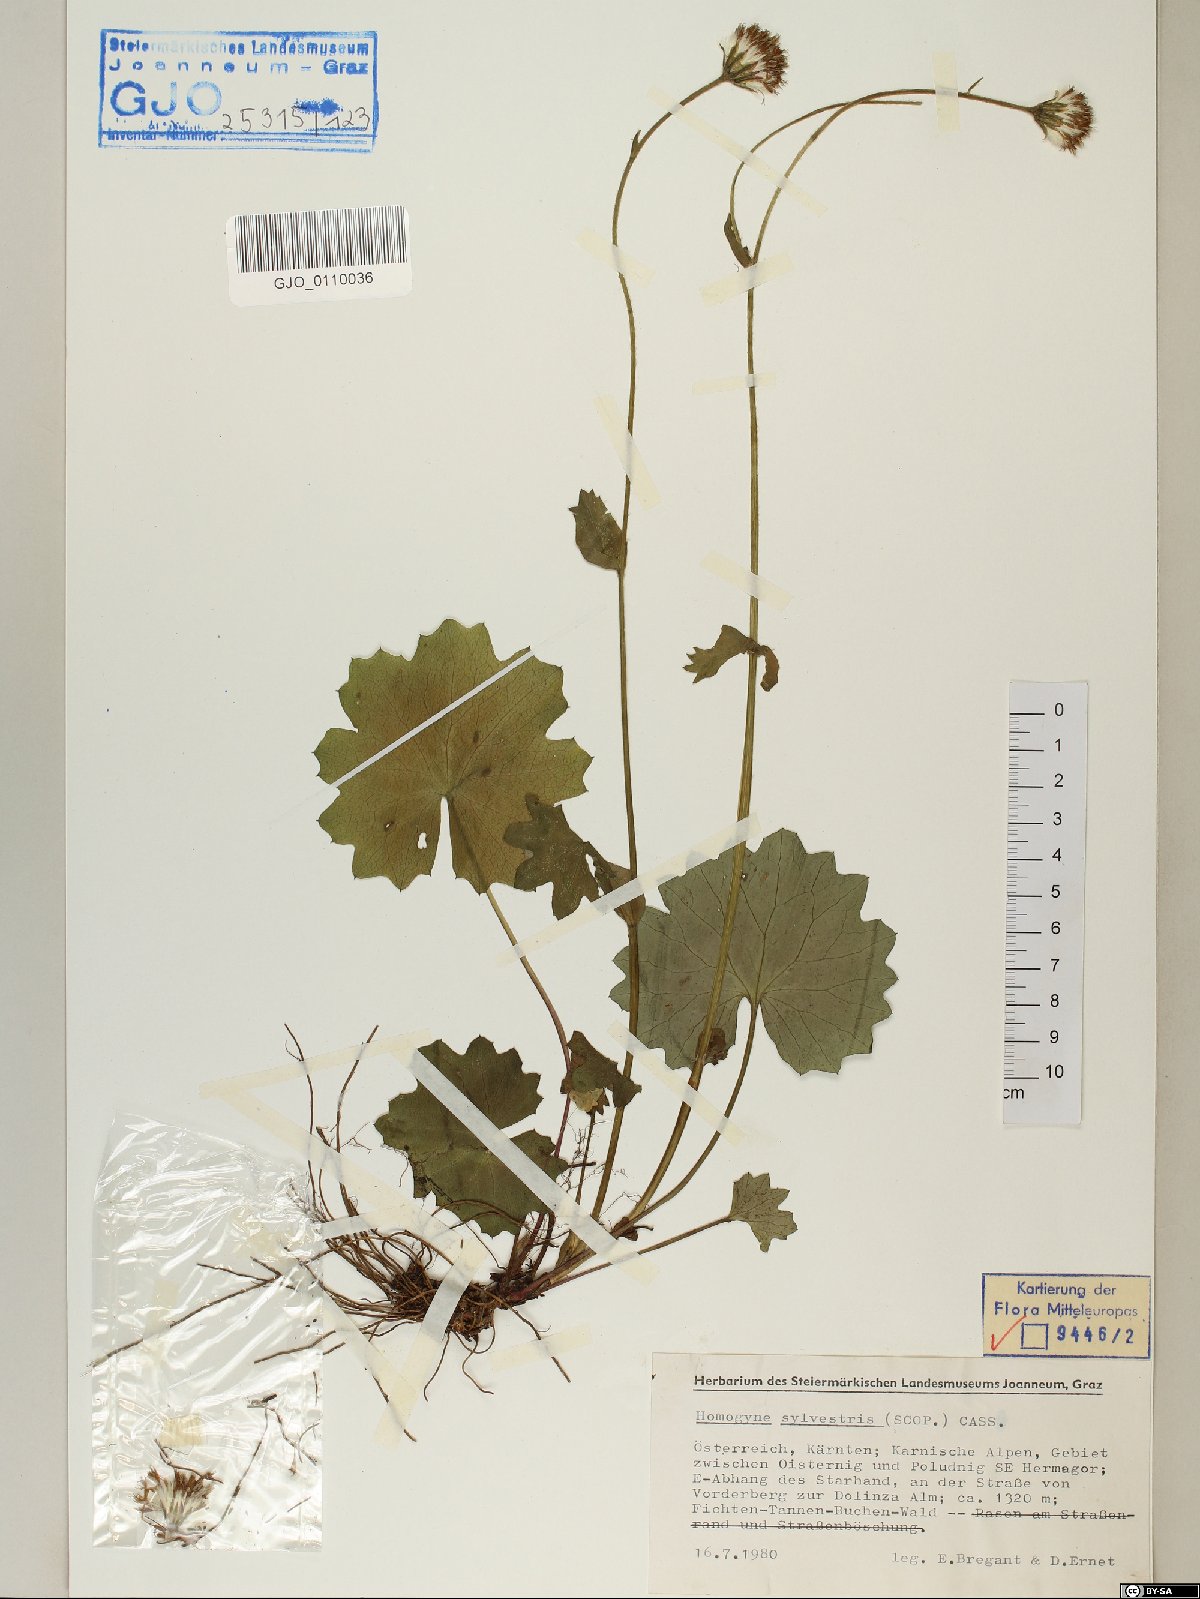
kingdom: Plantae
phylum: Tracheophyta
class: Magnoliopsida
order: Asterales
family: Asteraceae
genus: Homogyne
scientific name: Homogyne sylvestris
